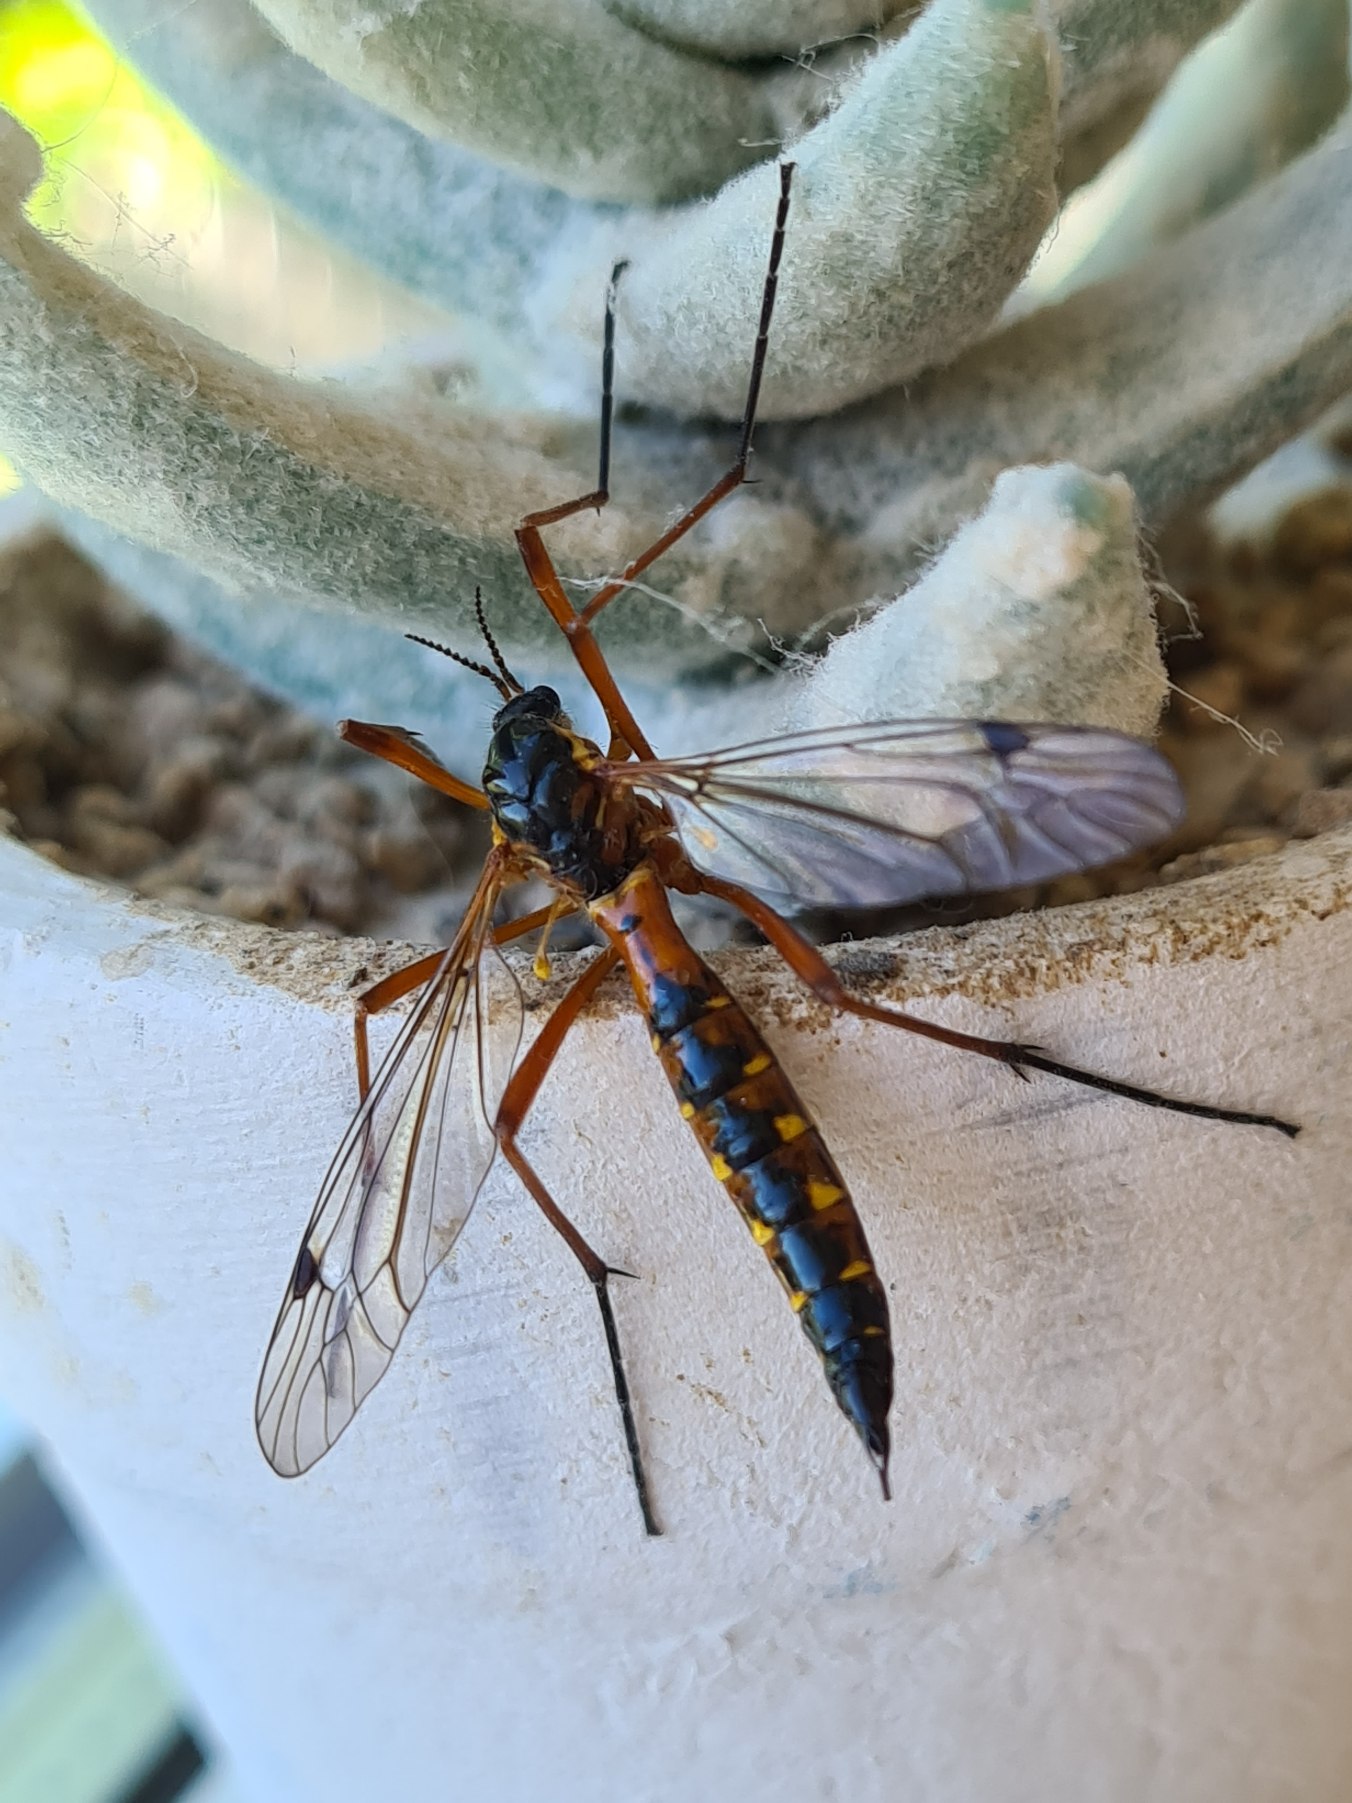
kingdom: Animalia
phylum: Arthropoda
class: Insecta
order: Diptera
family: Tipulidae
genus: Ctenophora
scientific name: Ctenophora pectinicornis
